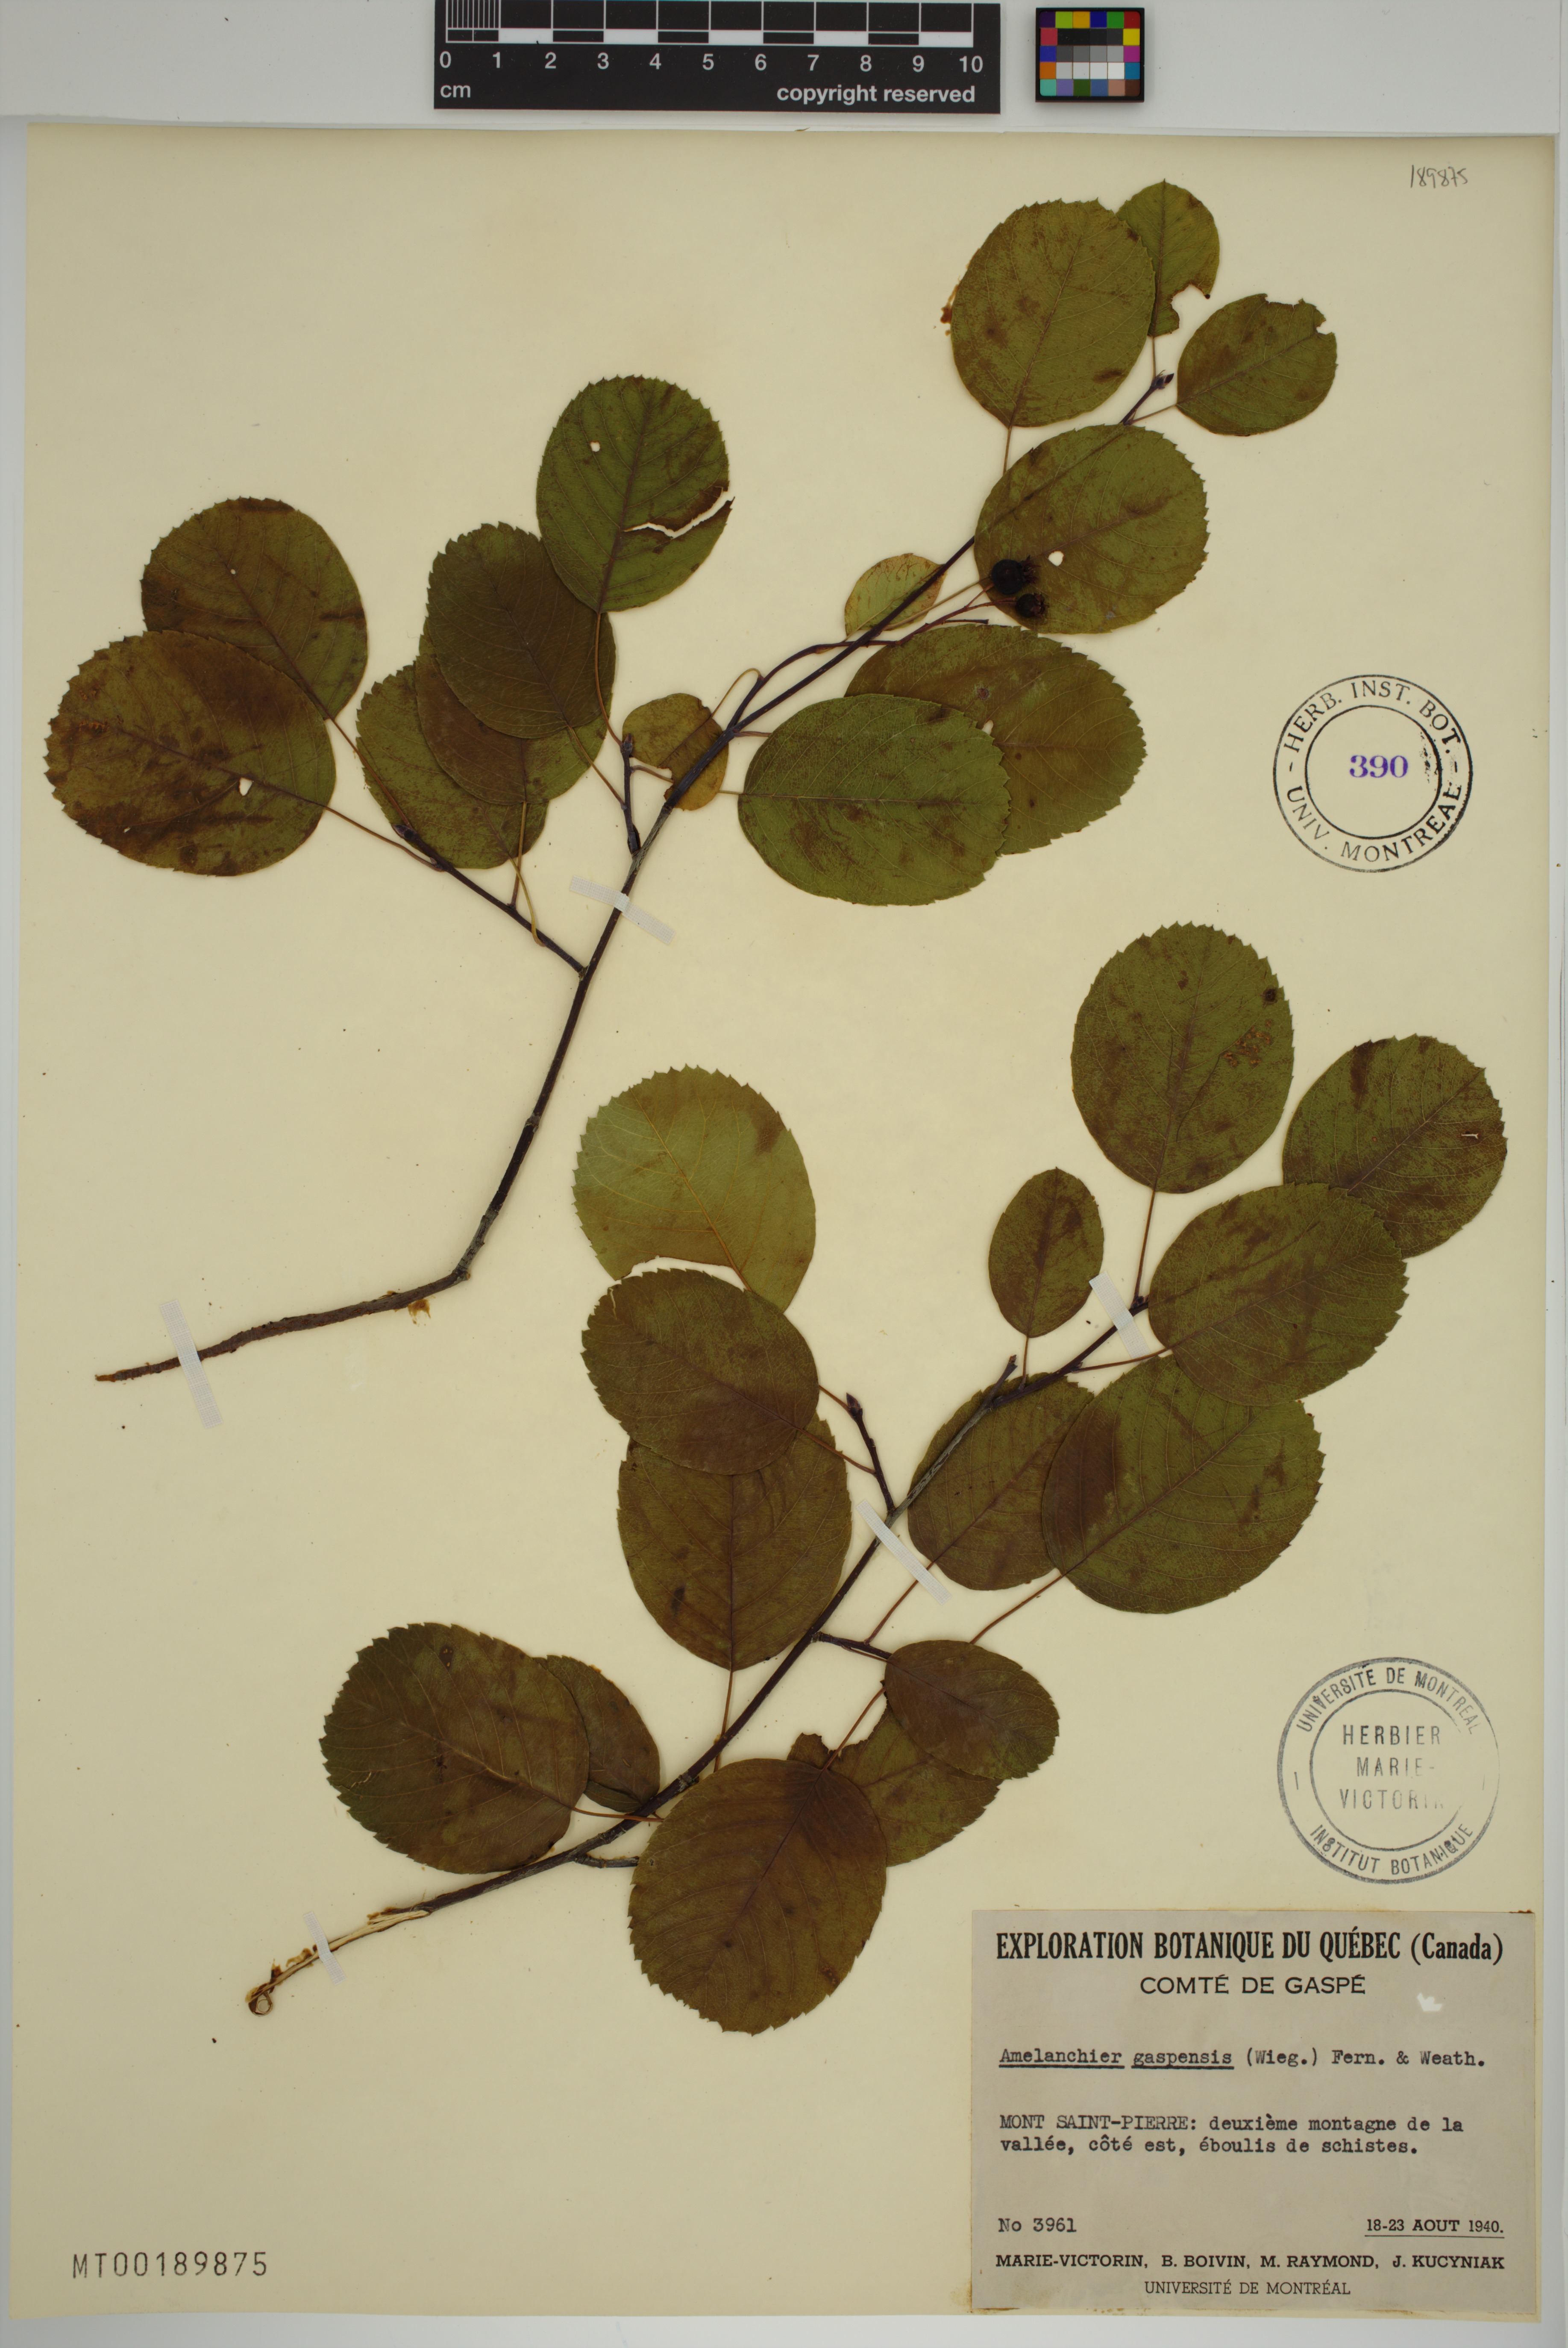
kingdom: Plantae
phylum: Tracheophyta
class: Magnoliopsida
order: Rosales
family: Rosaceae
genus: Amelanchier
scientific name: Amelanchier sanguinea
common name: Huron serviceberry
